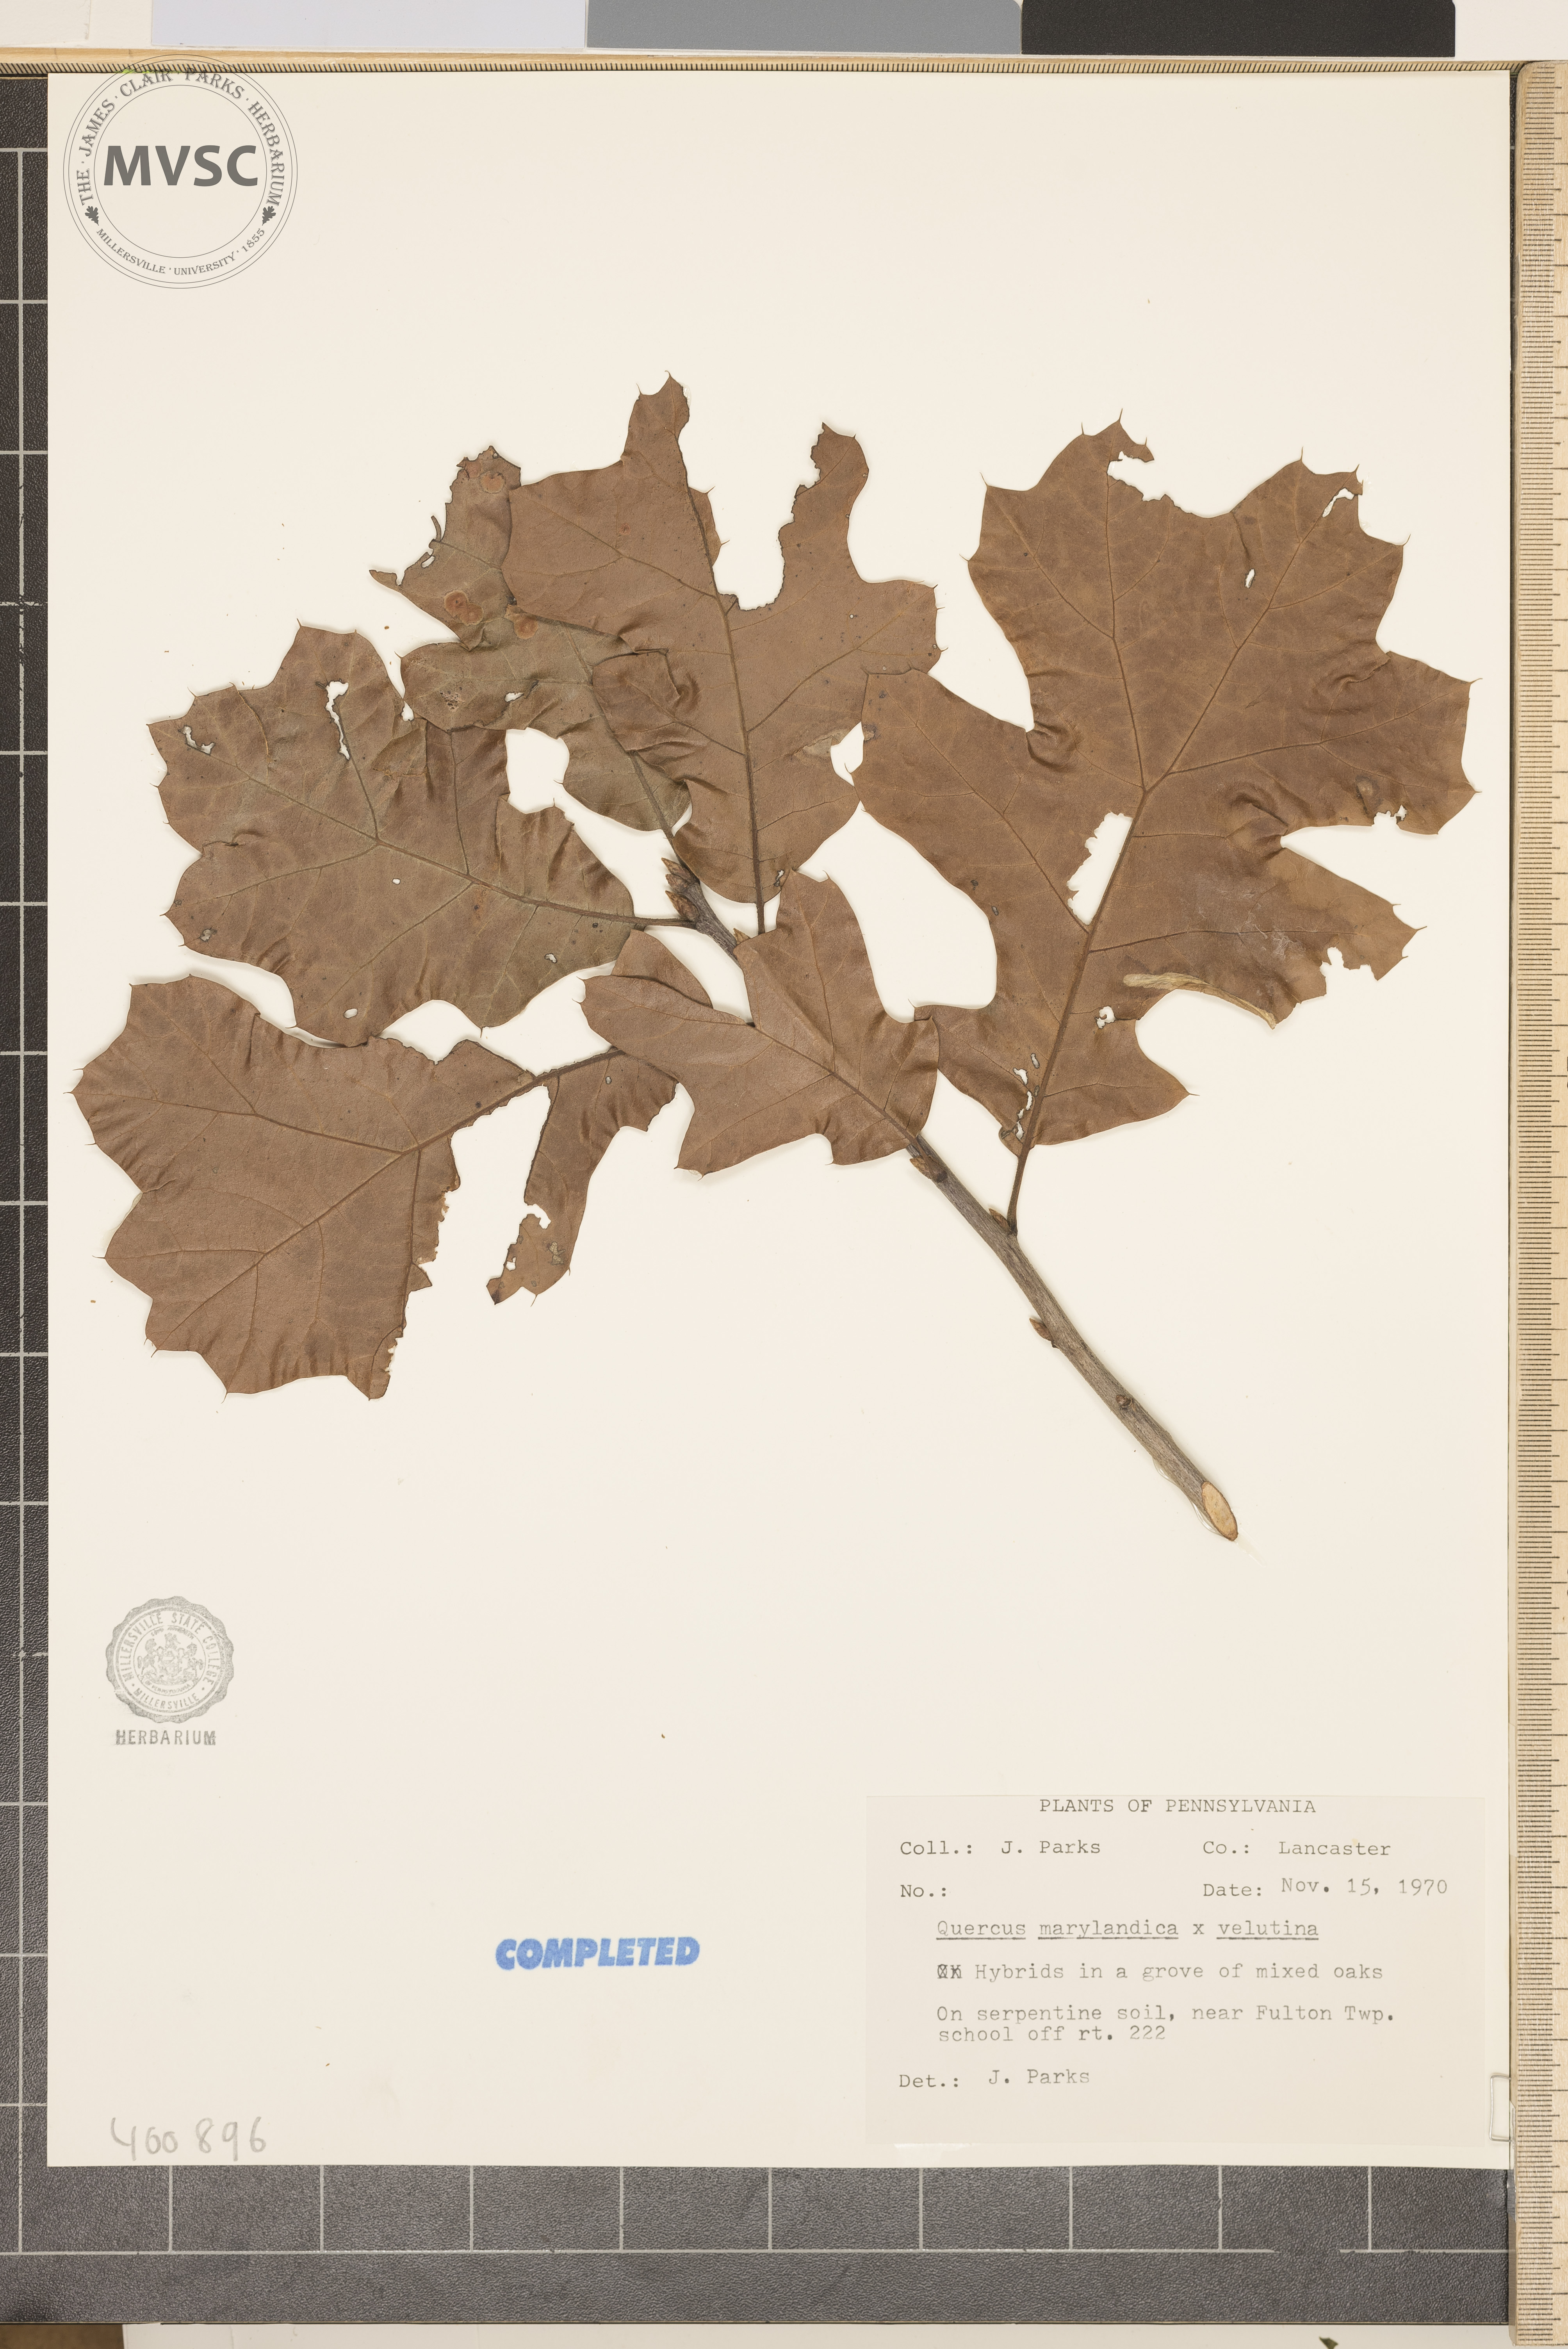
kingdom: Plantae
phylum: Tracheophyta
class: Magnoliopsida
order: Fagales
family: Fagaceae
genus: Quercus
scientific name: Quercus
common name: blackjack oak
